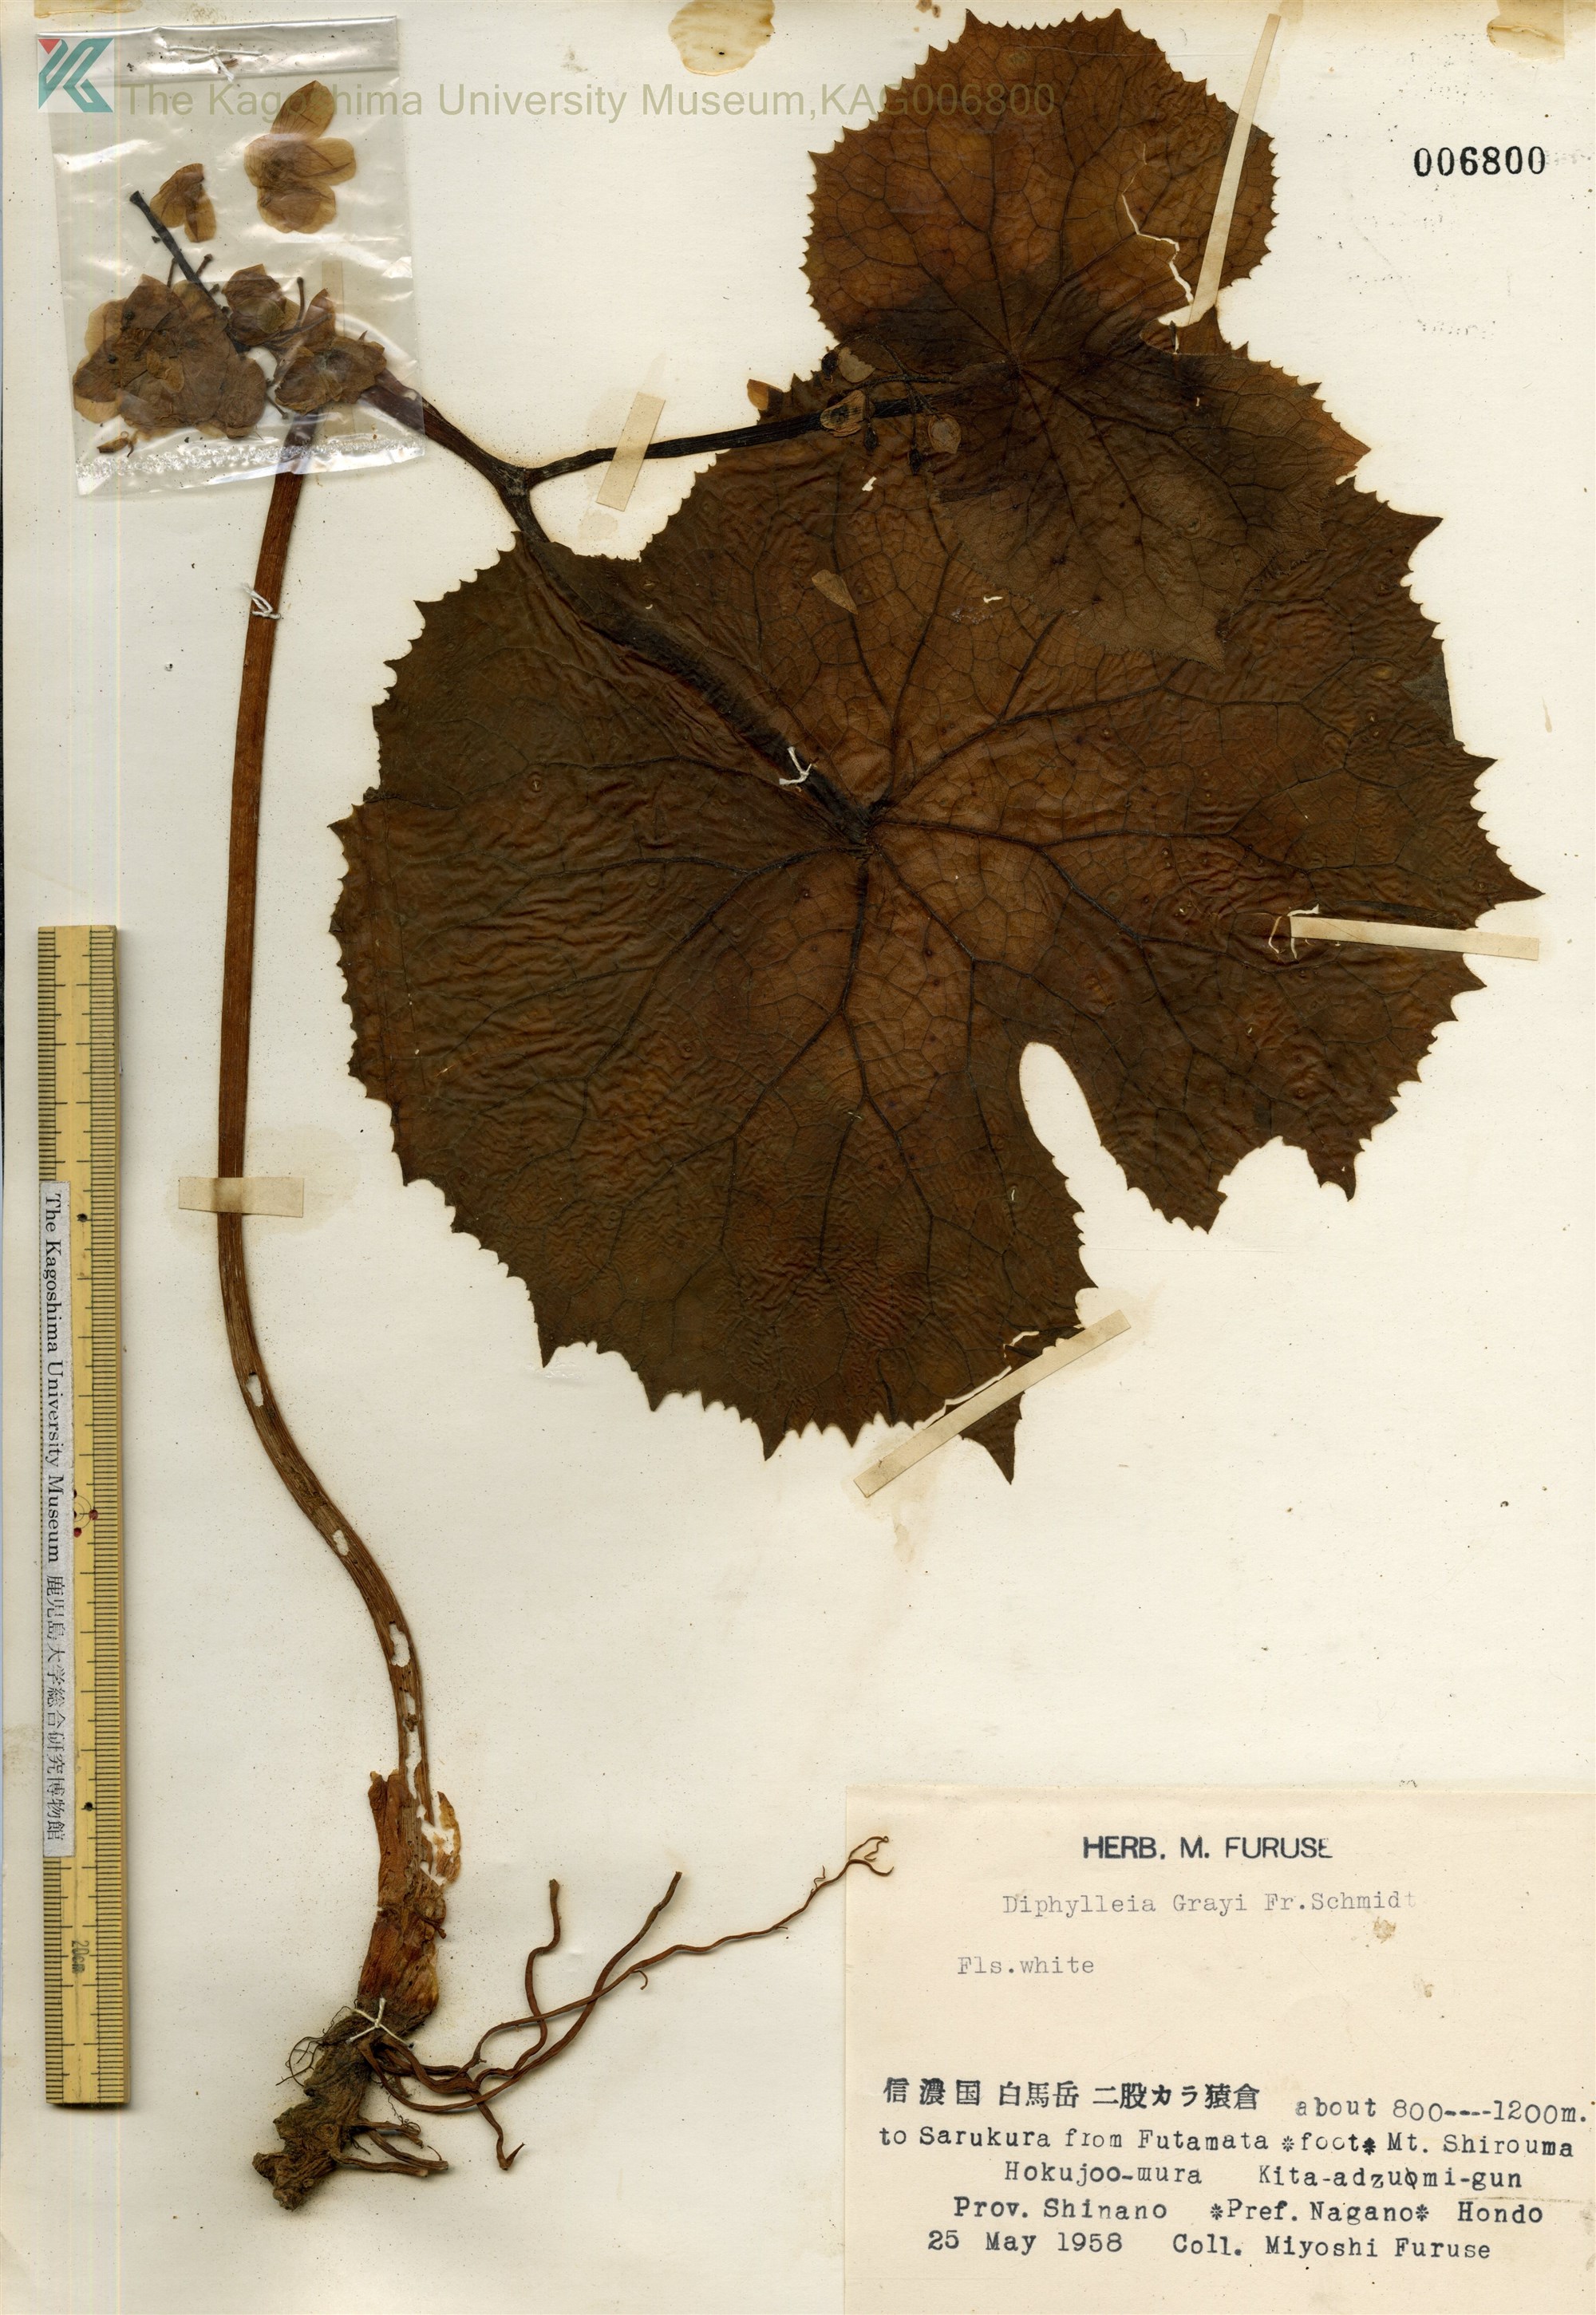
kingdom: Plantae
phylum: Tracheophyta
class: Magnoliopsida
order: Ranunculales
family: Berberidaceae
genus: Diphylleia
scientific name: Diphylleia grayi
